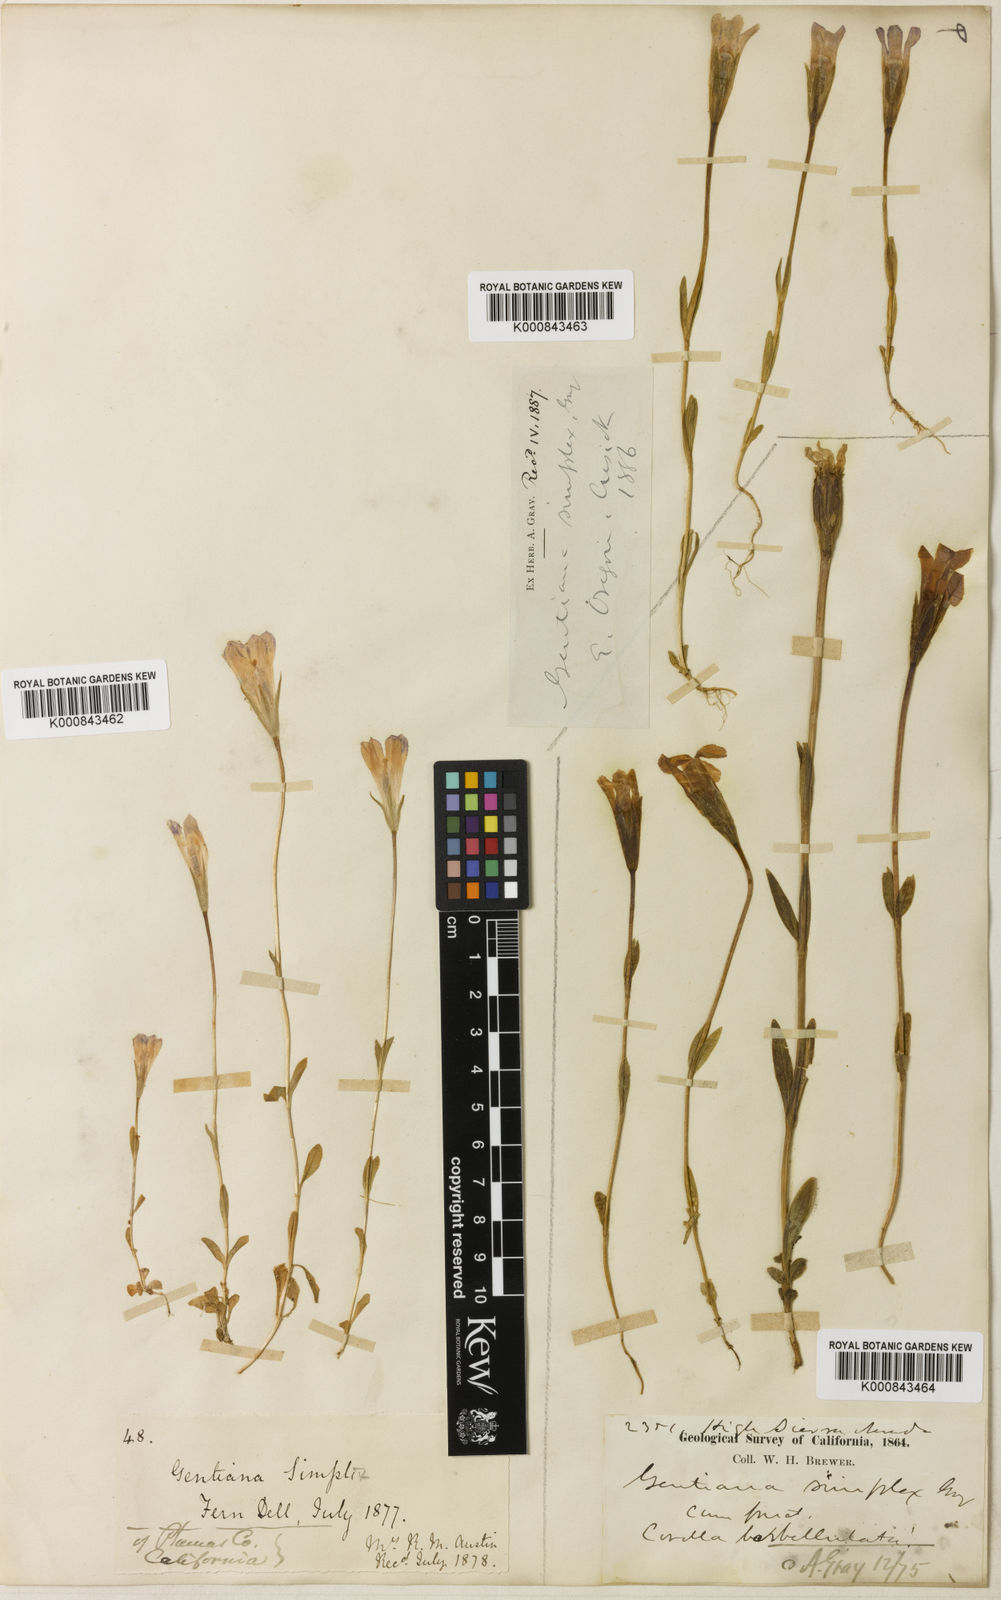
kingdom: Plantae
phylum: Tracheophyta
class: Magnoliopsida
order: Gentianales
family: Gentianaceae
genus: Gentianopsis
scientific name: Gentianopsis simplex
